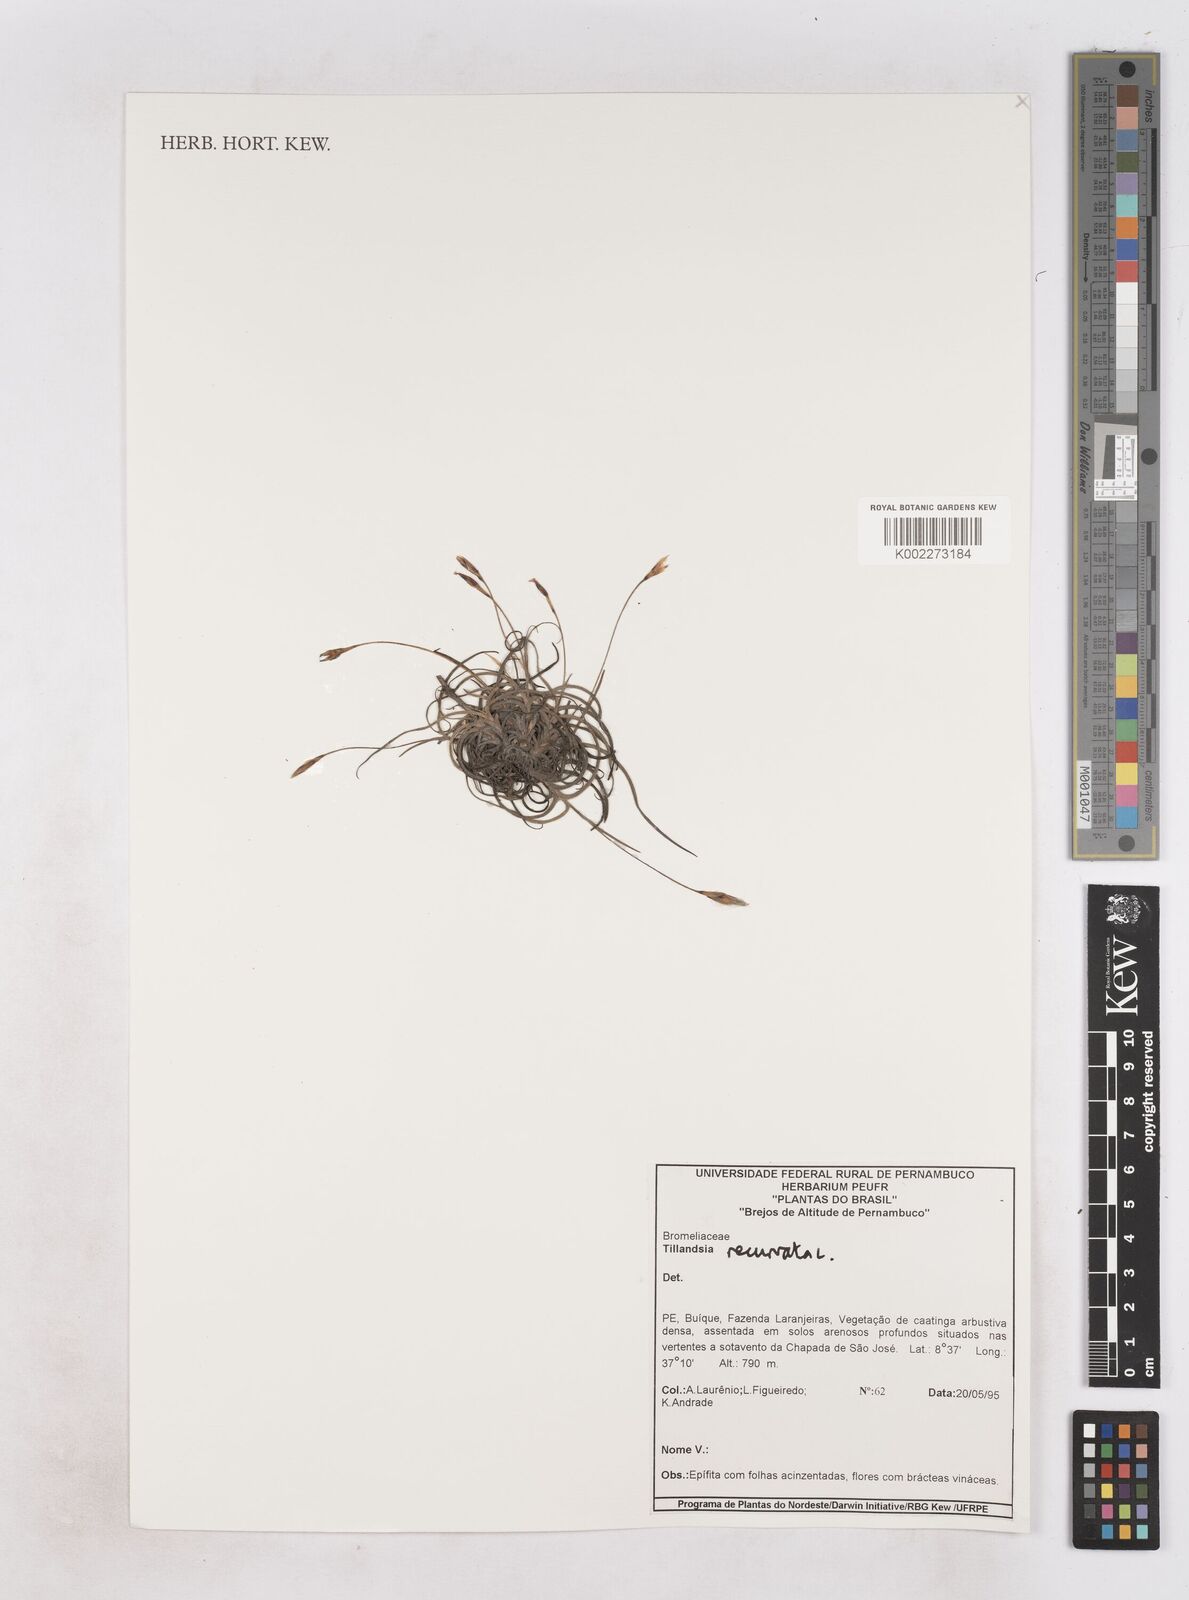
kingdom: Plantae
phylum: Tracheophyta
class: Liliopsida
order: Poales
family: Bromeliaceae
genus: Tillandsia
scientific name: Tillandsia recurvata
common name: Small ballmoss
